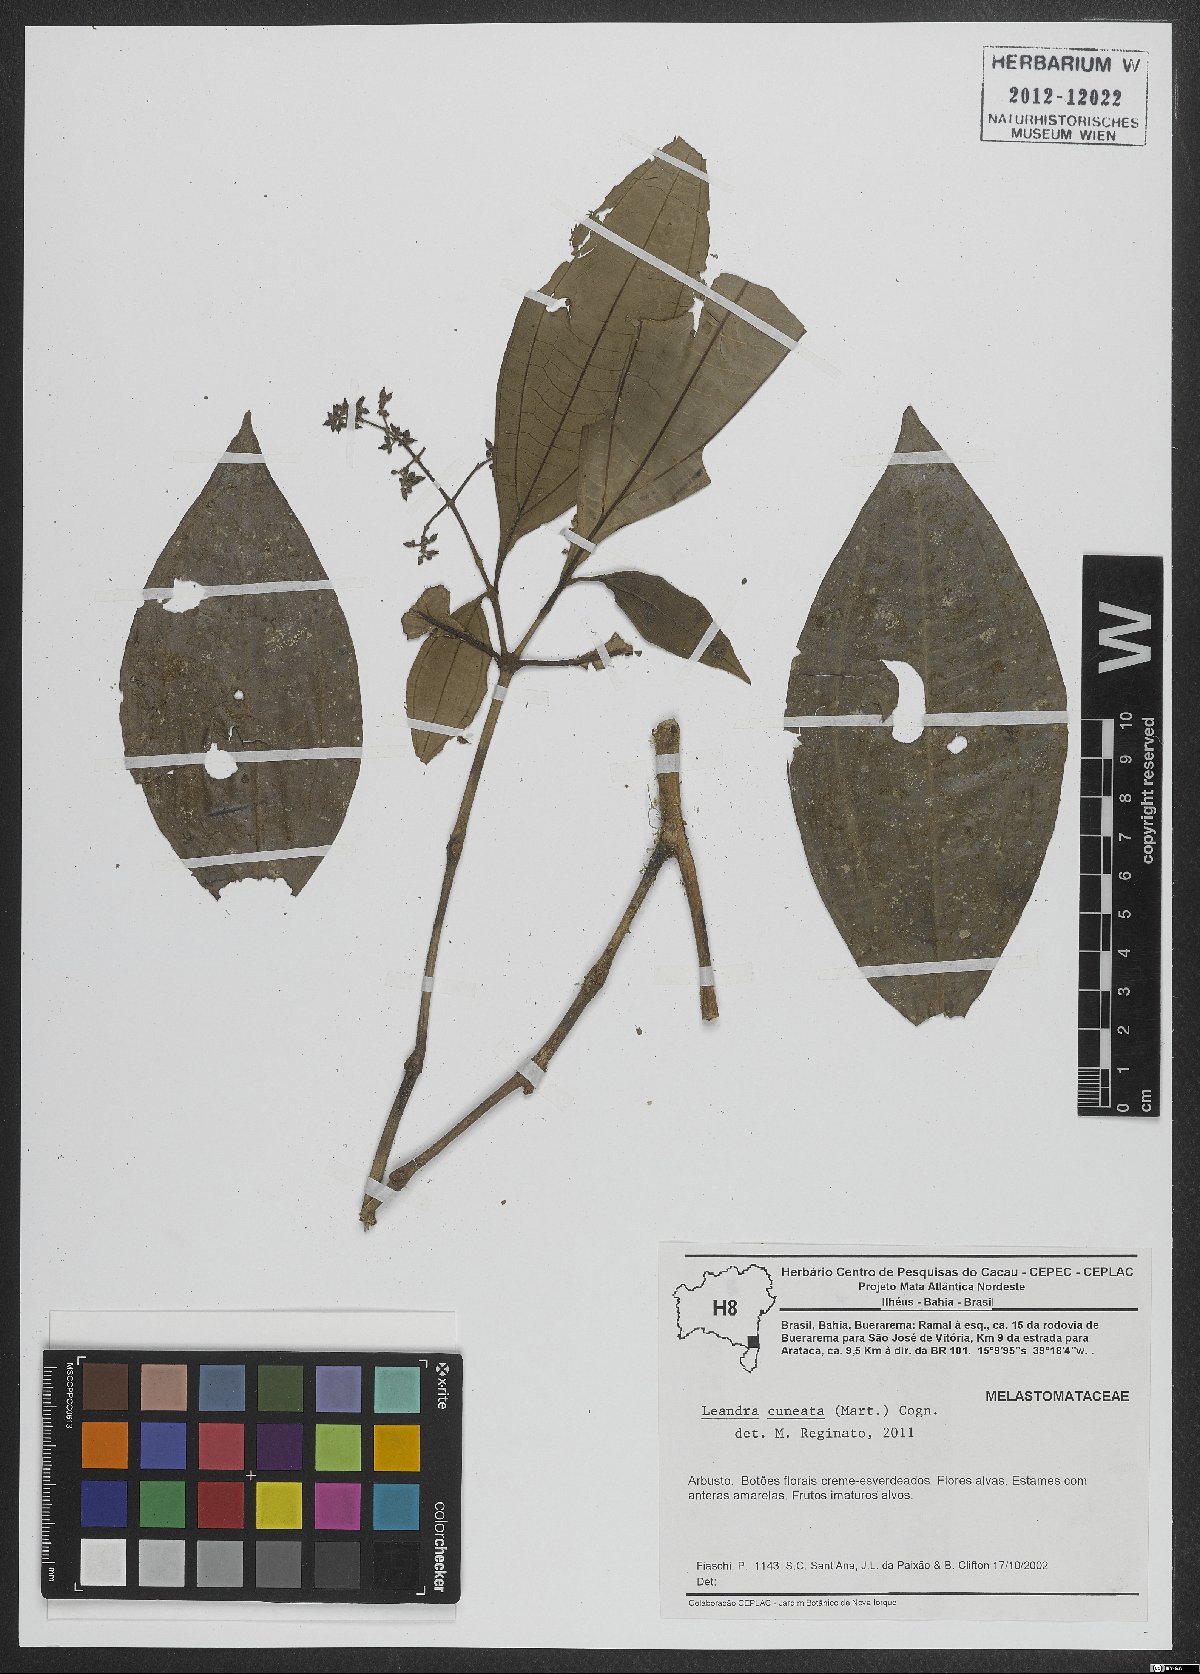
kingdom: Plantae
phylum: Tracheophyta
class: Magnoliopsida
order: Myrtales
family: Melastomataceae
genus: Miconia
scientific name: Miconia cuneatissima
